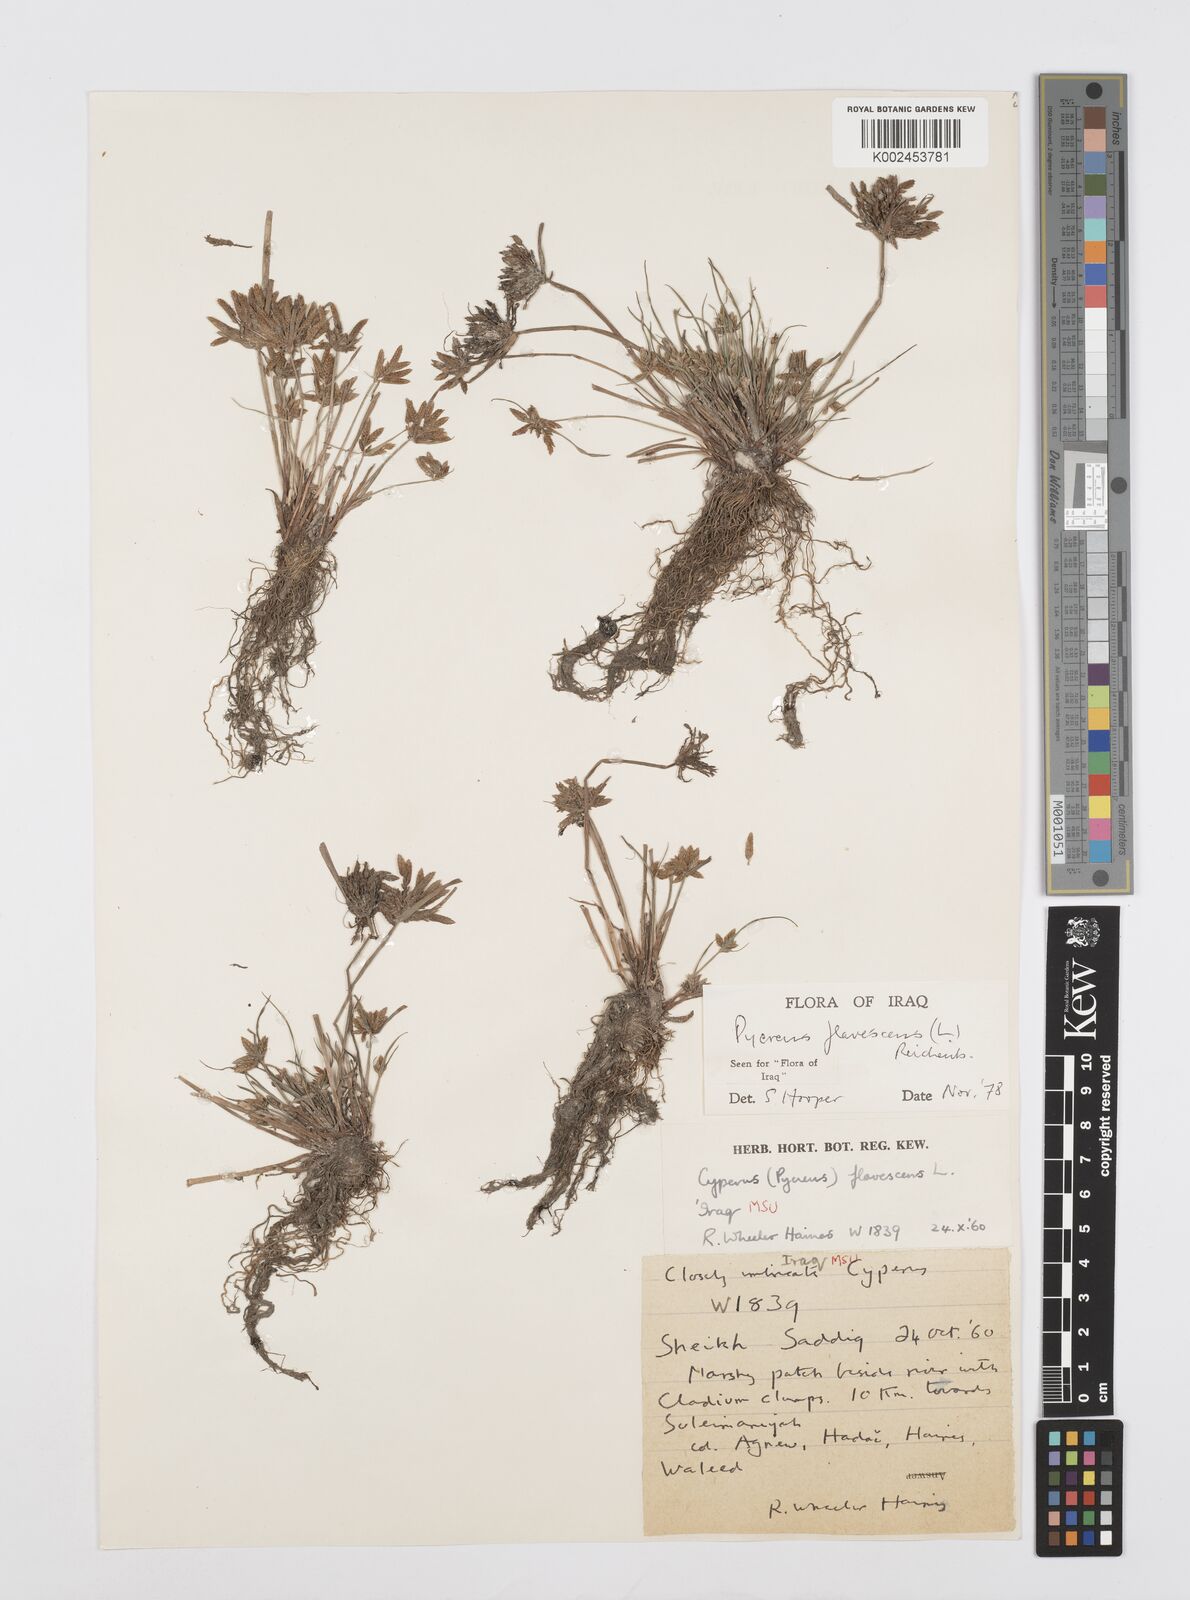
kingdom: Plantae
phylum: Tracheophyta
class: Liliopsida
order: Poales
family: Cyperaceae
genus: Cyperus
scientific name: Cyperus flavescens
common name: Yellow galingale
